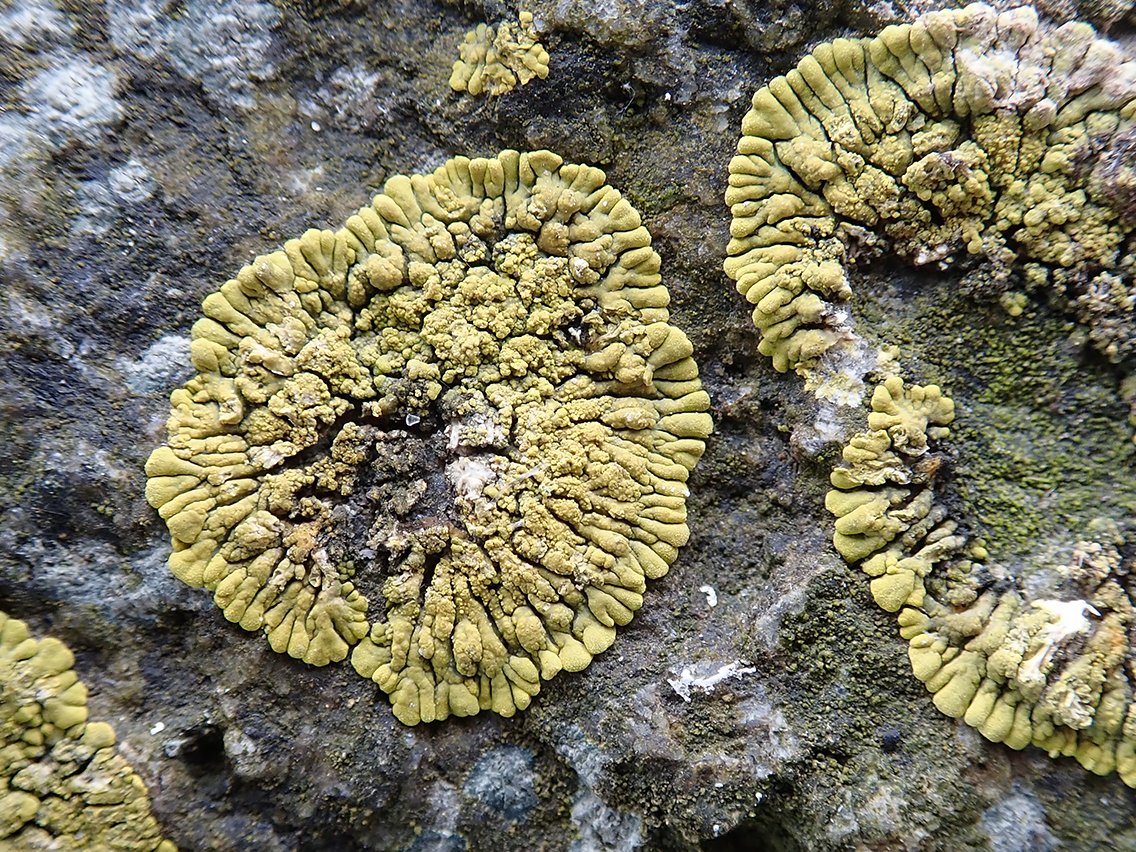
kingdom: Fungi
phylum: Ascomycota
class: Lecanoromycetes
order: Teloschistales
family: Teloschistaceae
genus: Verrucoplaca
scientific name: Verrucoplaca verruculifera
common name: koldkyst-orangelav
